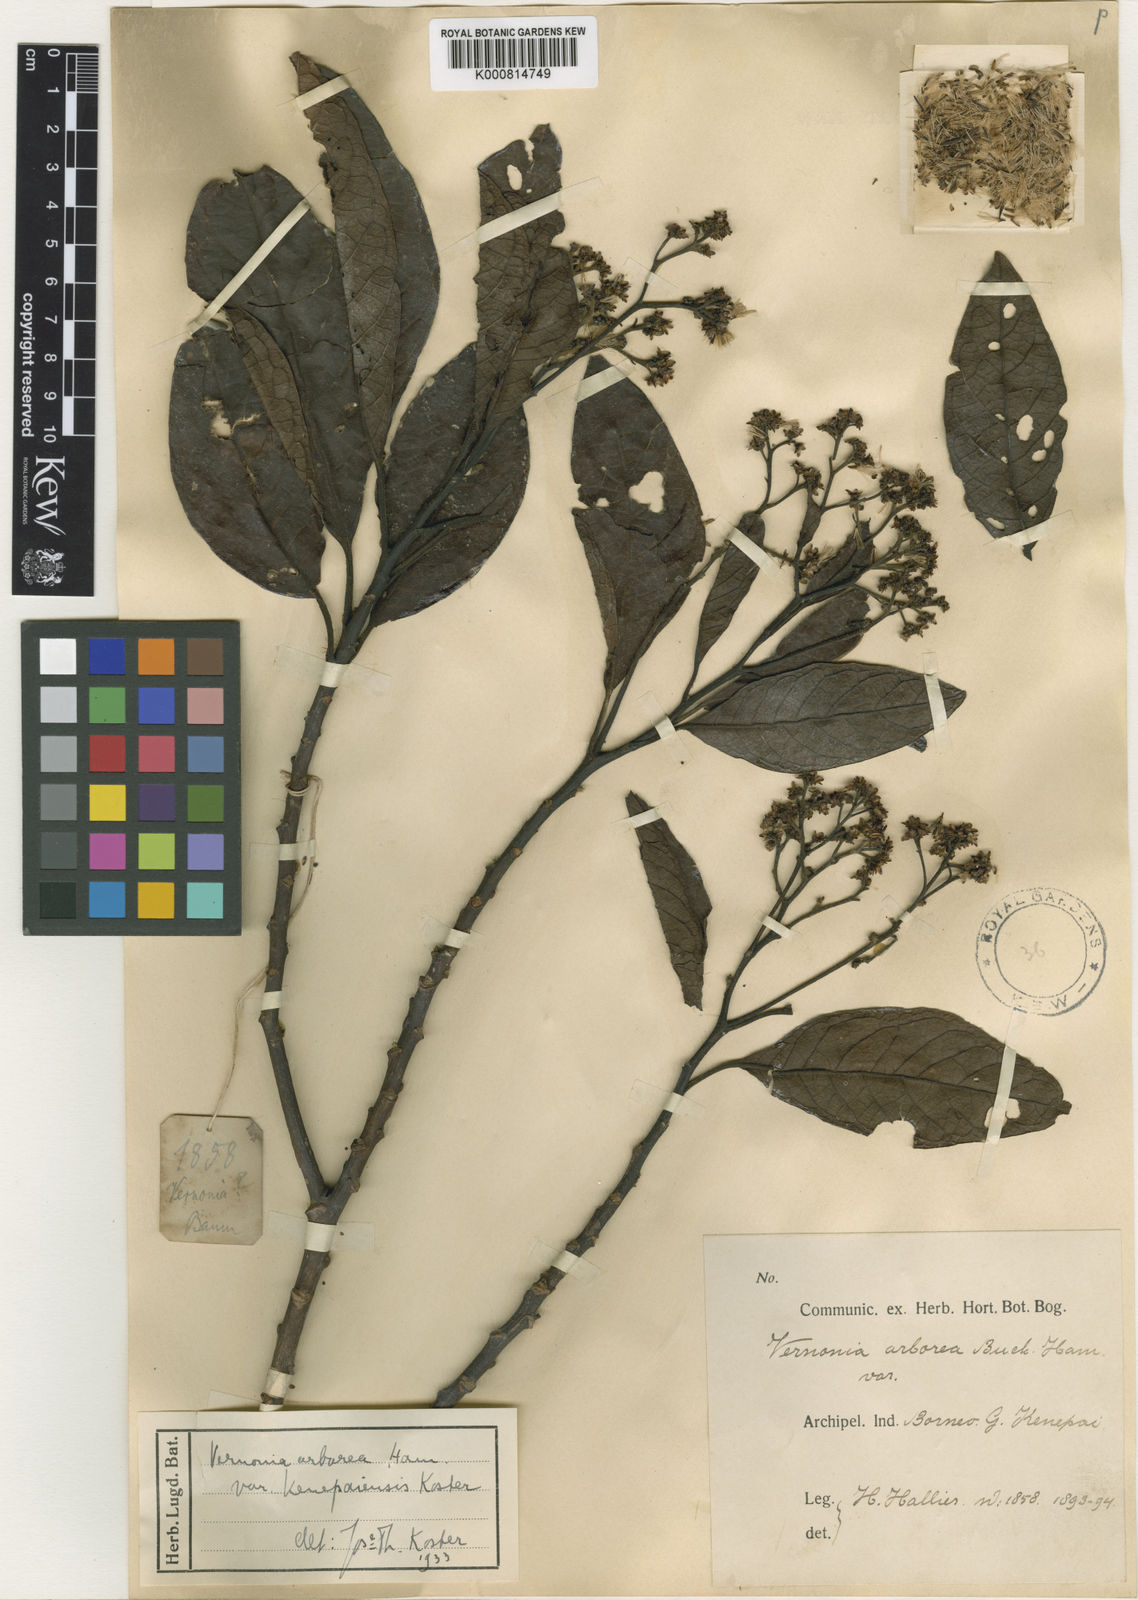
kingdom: Plantae
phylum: Tracheophyta
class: Magnoliopsida
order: Asterales
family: Asteraceae
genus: Strobocalyx
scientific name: Strobocalyx arborea
